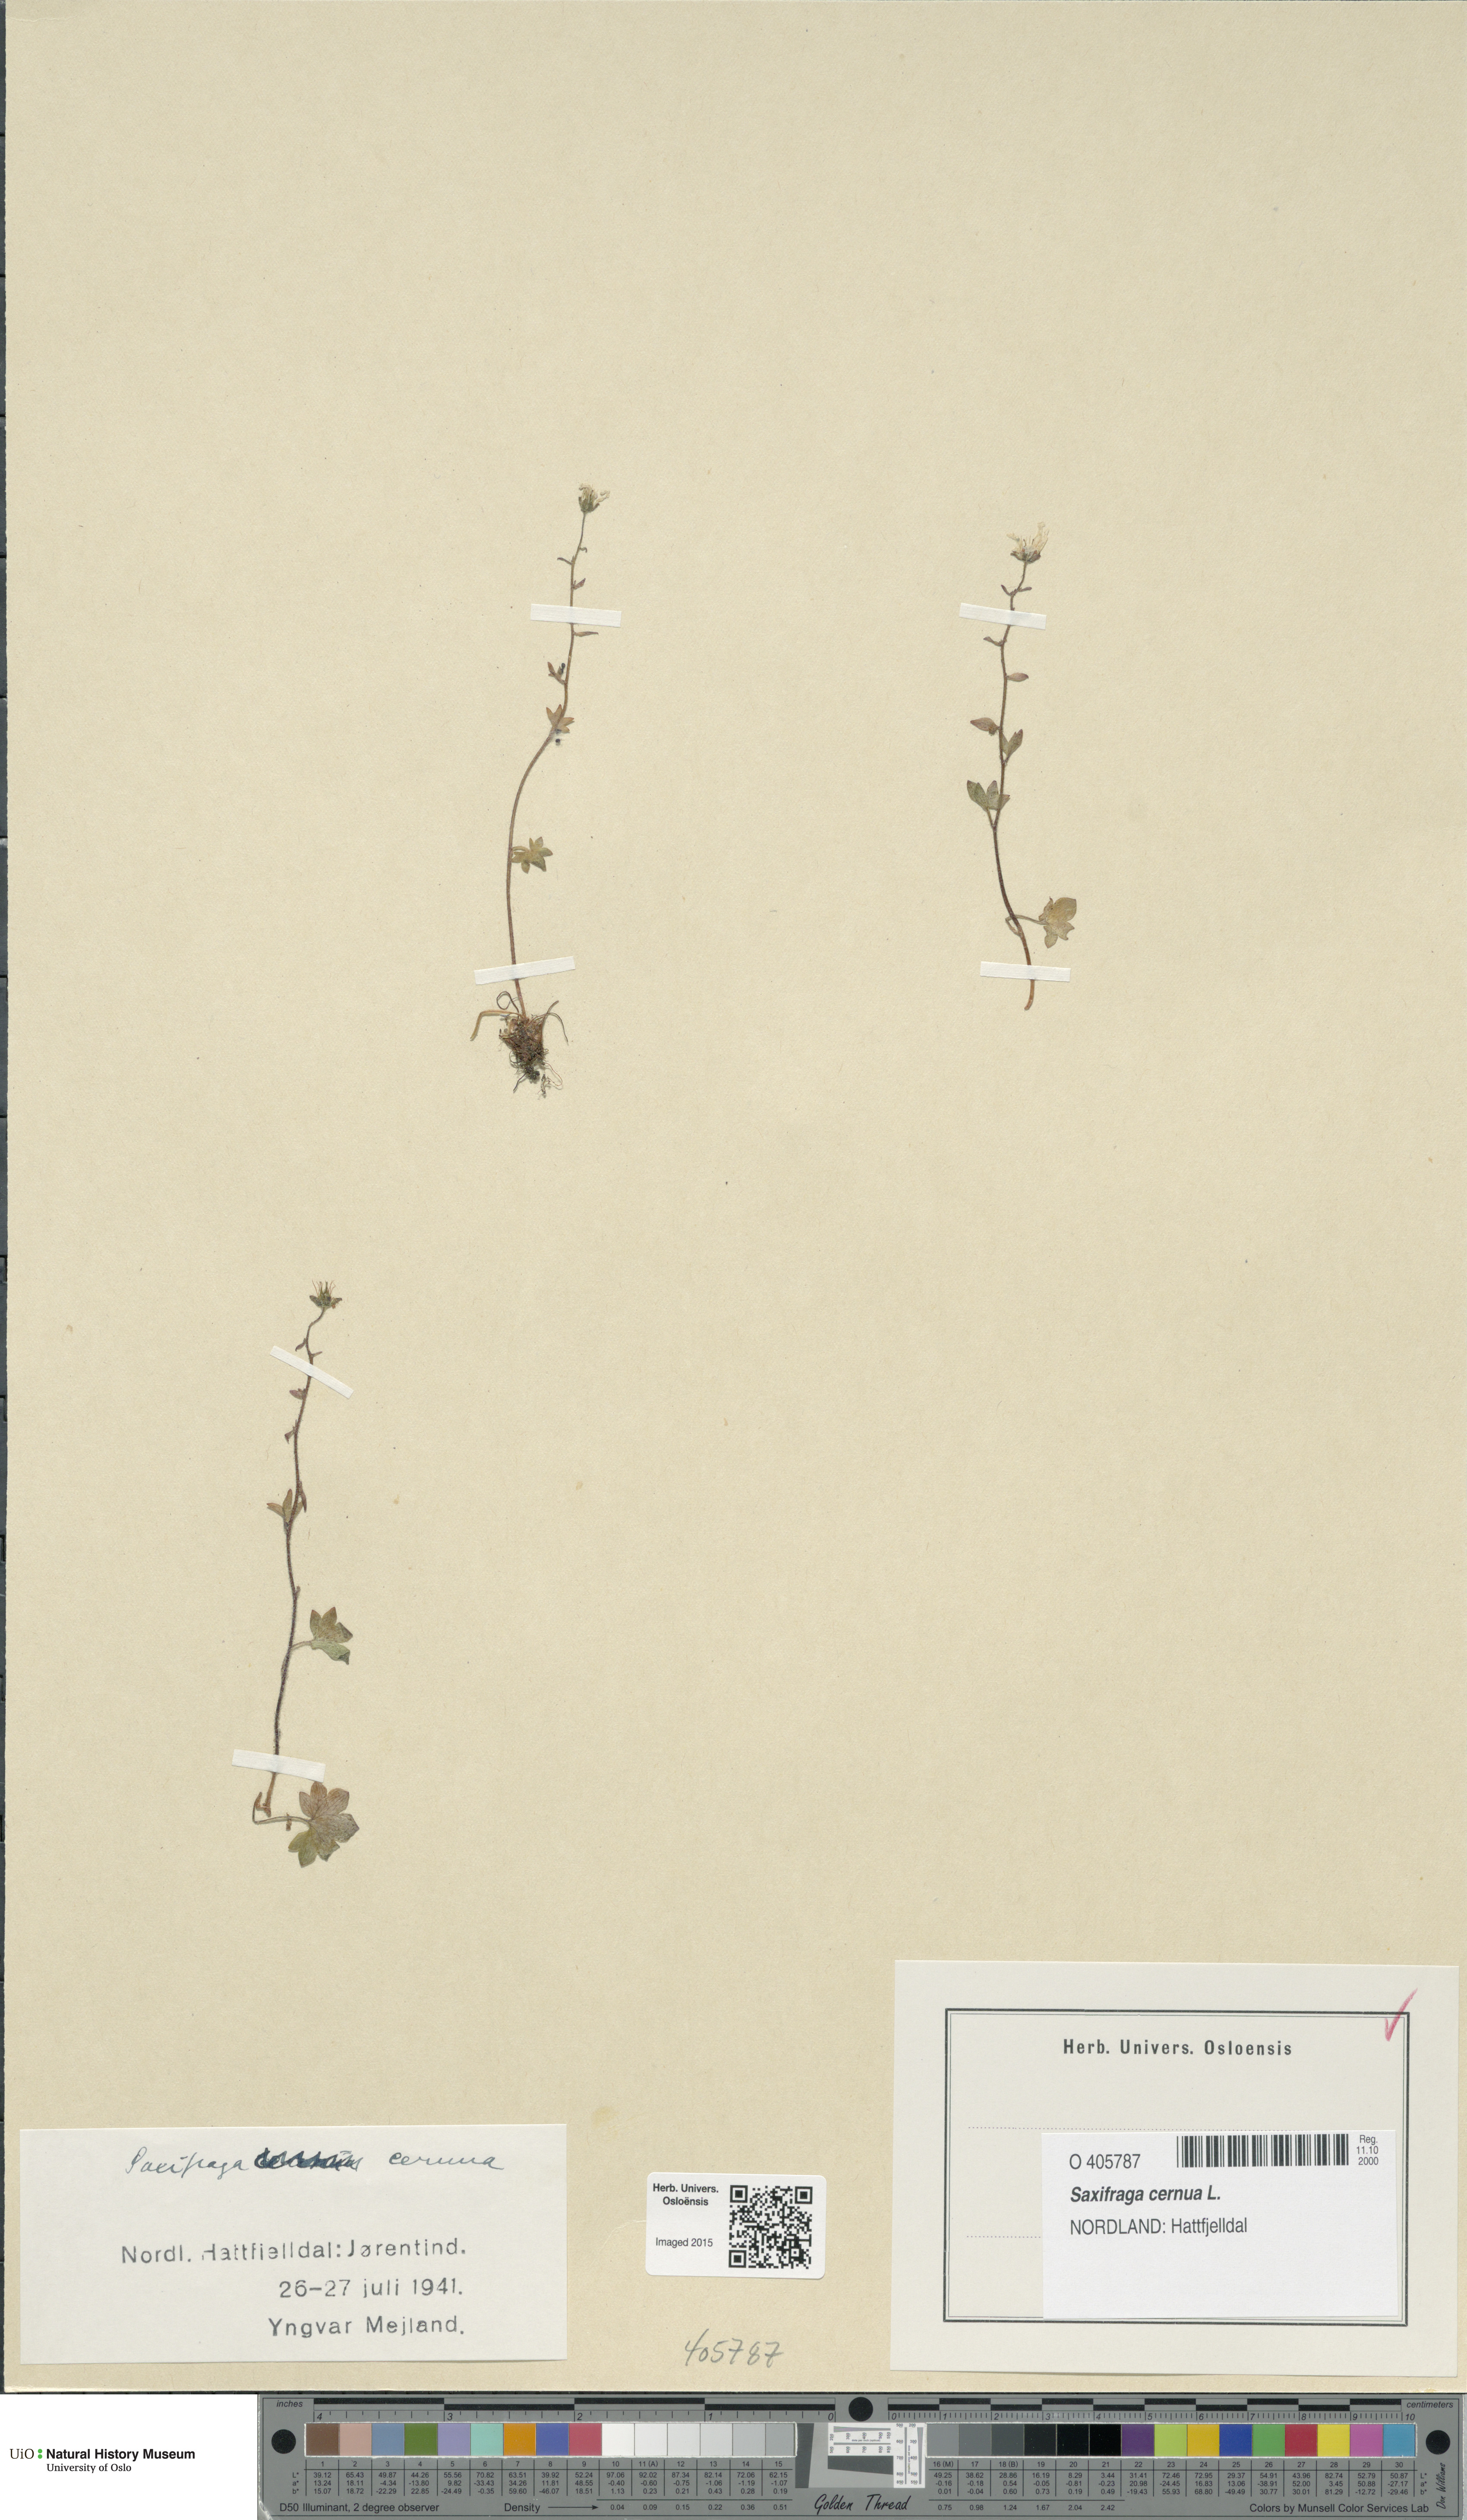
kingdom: Plantae
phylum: Tracheophyta
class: Magnoliopsida
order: Saxifragales
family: Saxifragaceae
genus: Saxifraga
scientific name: Saxifraga cernua
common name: Drooping saxifrage
